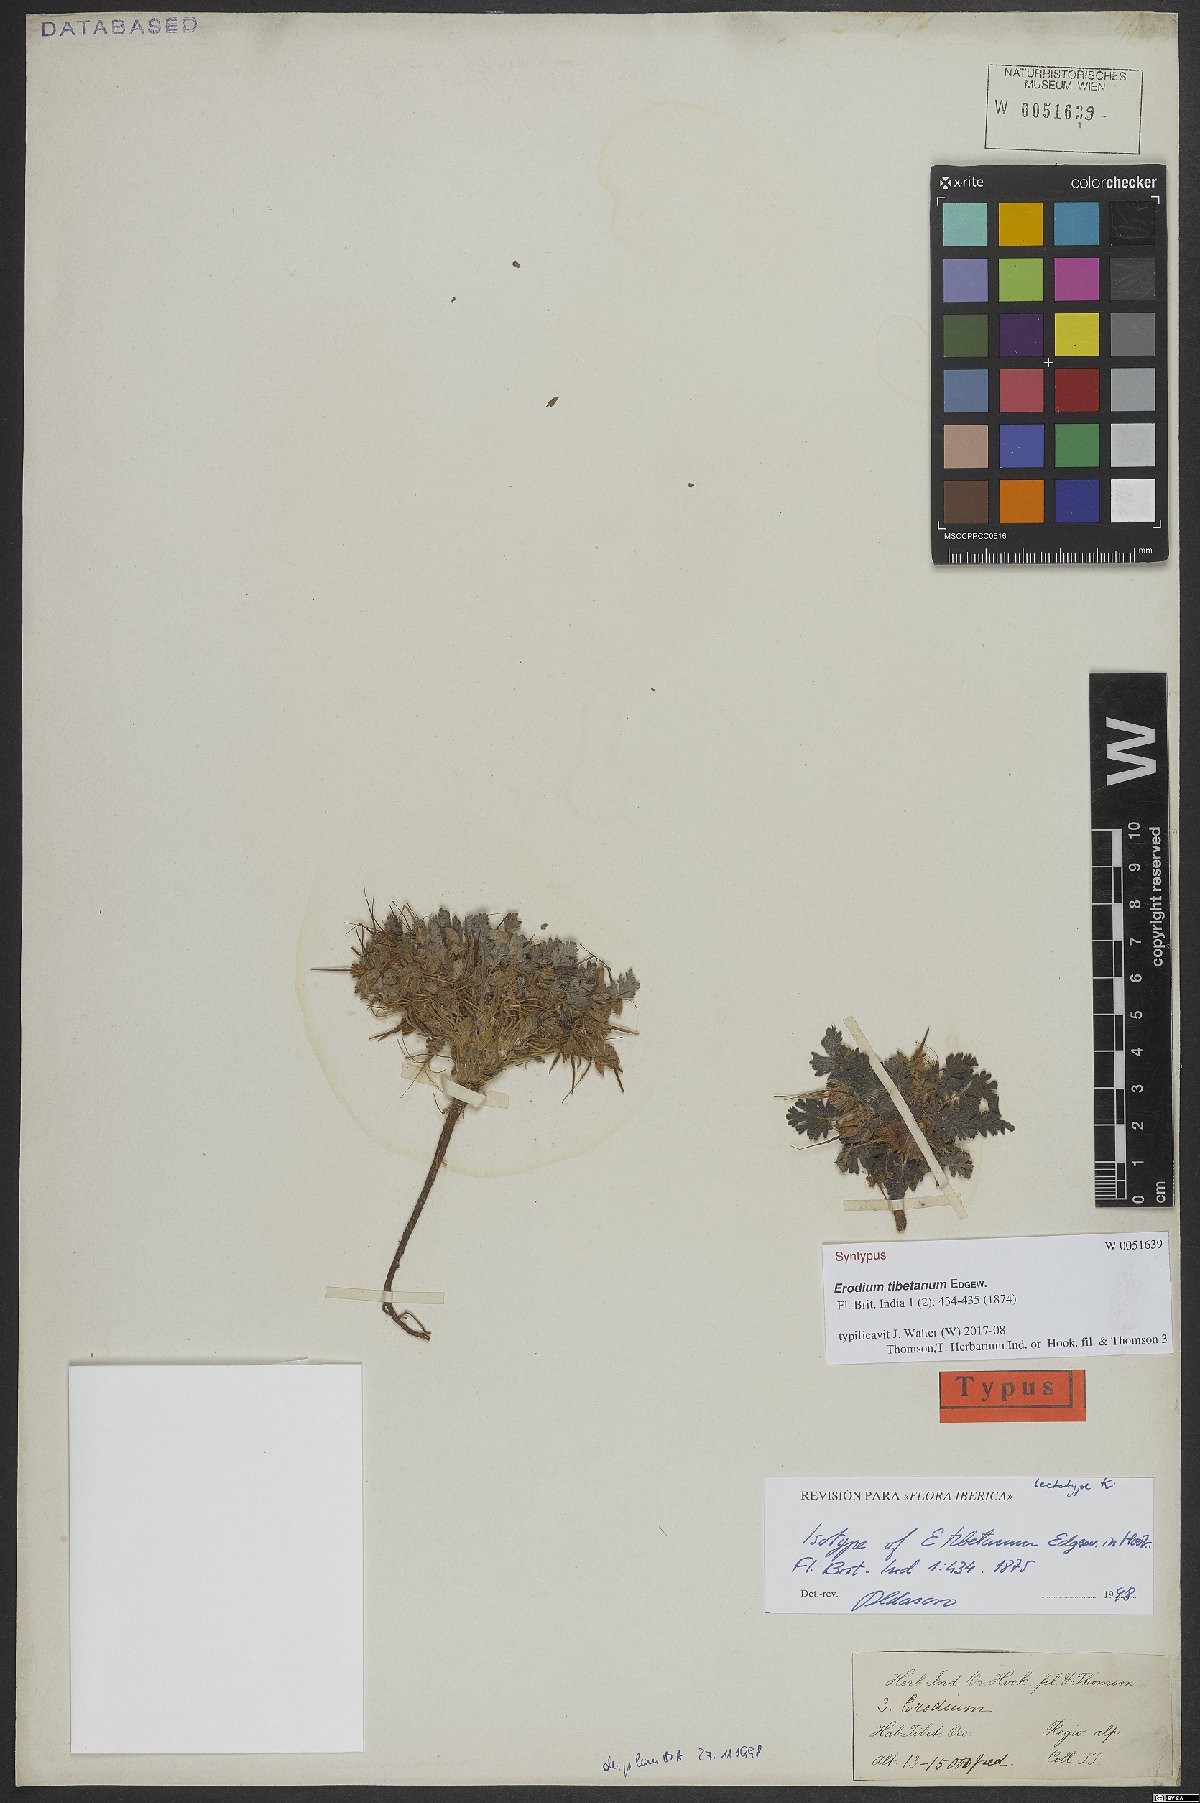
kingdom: Plantae
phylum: Tracheophyta
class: Magnoliopsida
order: Geraniales
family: Geraniaceae
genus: Erodium
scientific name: Erodium tibetanum
